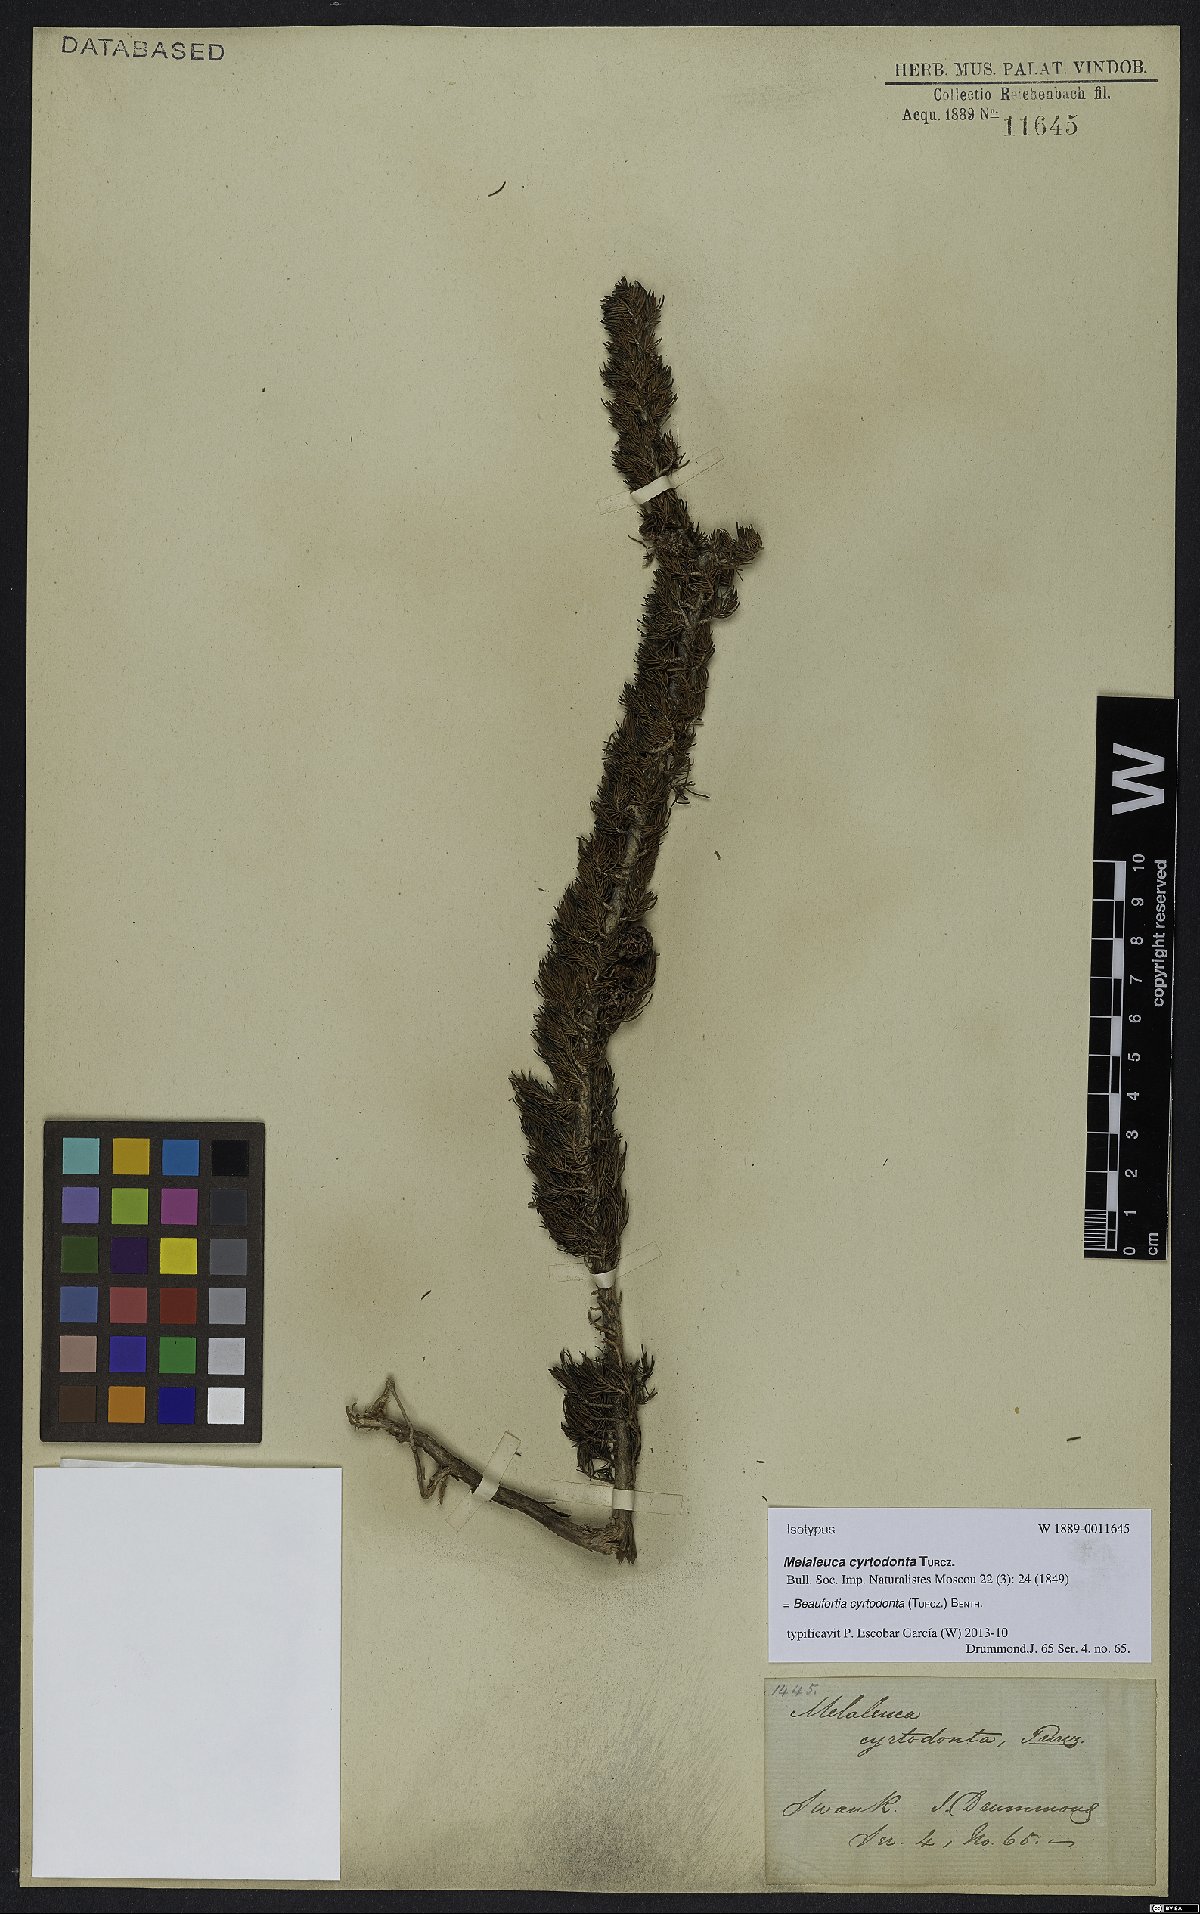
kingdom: Plantae
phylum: Tracheophyta
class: Magnoliopsida
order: Myrtales
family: Myrtaceae
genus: Melaleuca
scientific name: Melaleuca cyrtodonta
